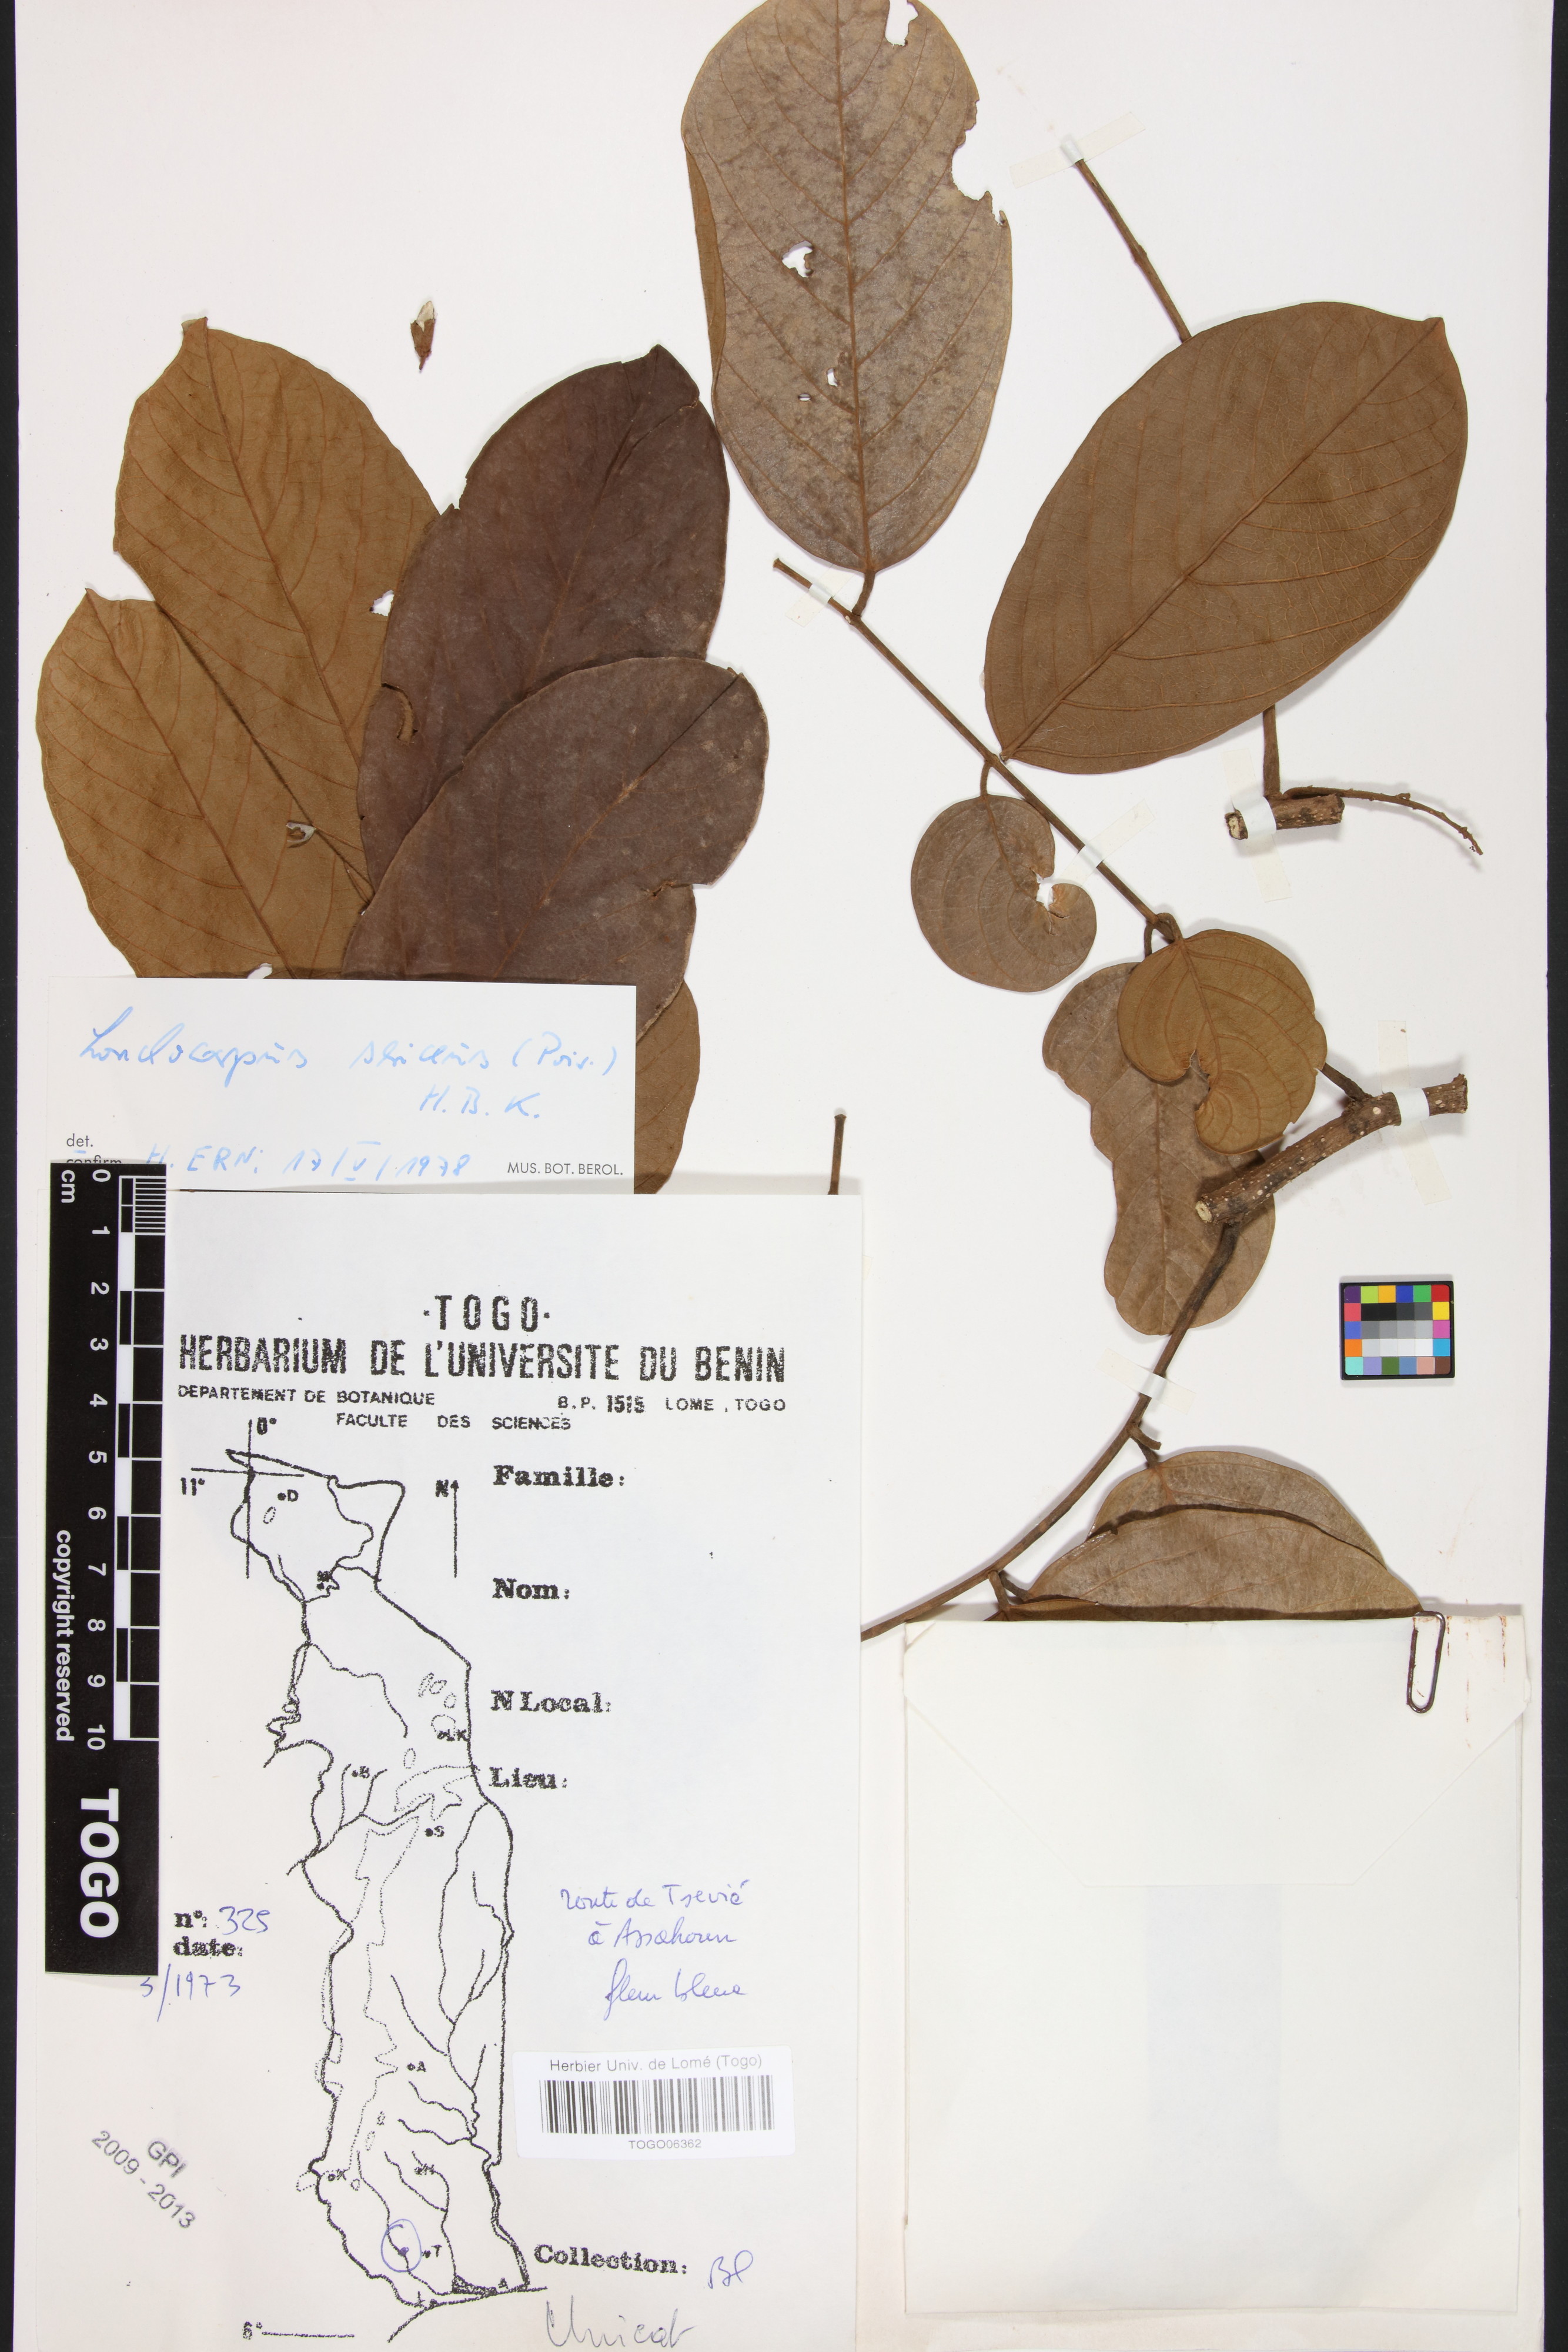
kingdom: Plantae
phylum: Tracheophyta
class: Magnoliopsida
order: Fabales
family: Fabaceae
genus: Lonchocarpus
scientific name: Lonchocarpus sericeus
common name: Savonette
